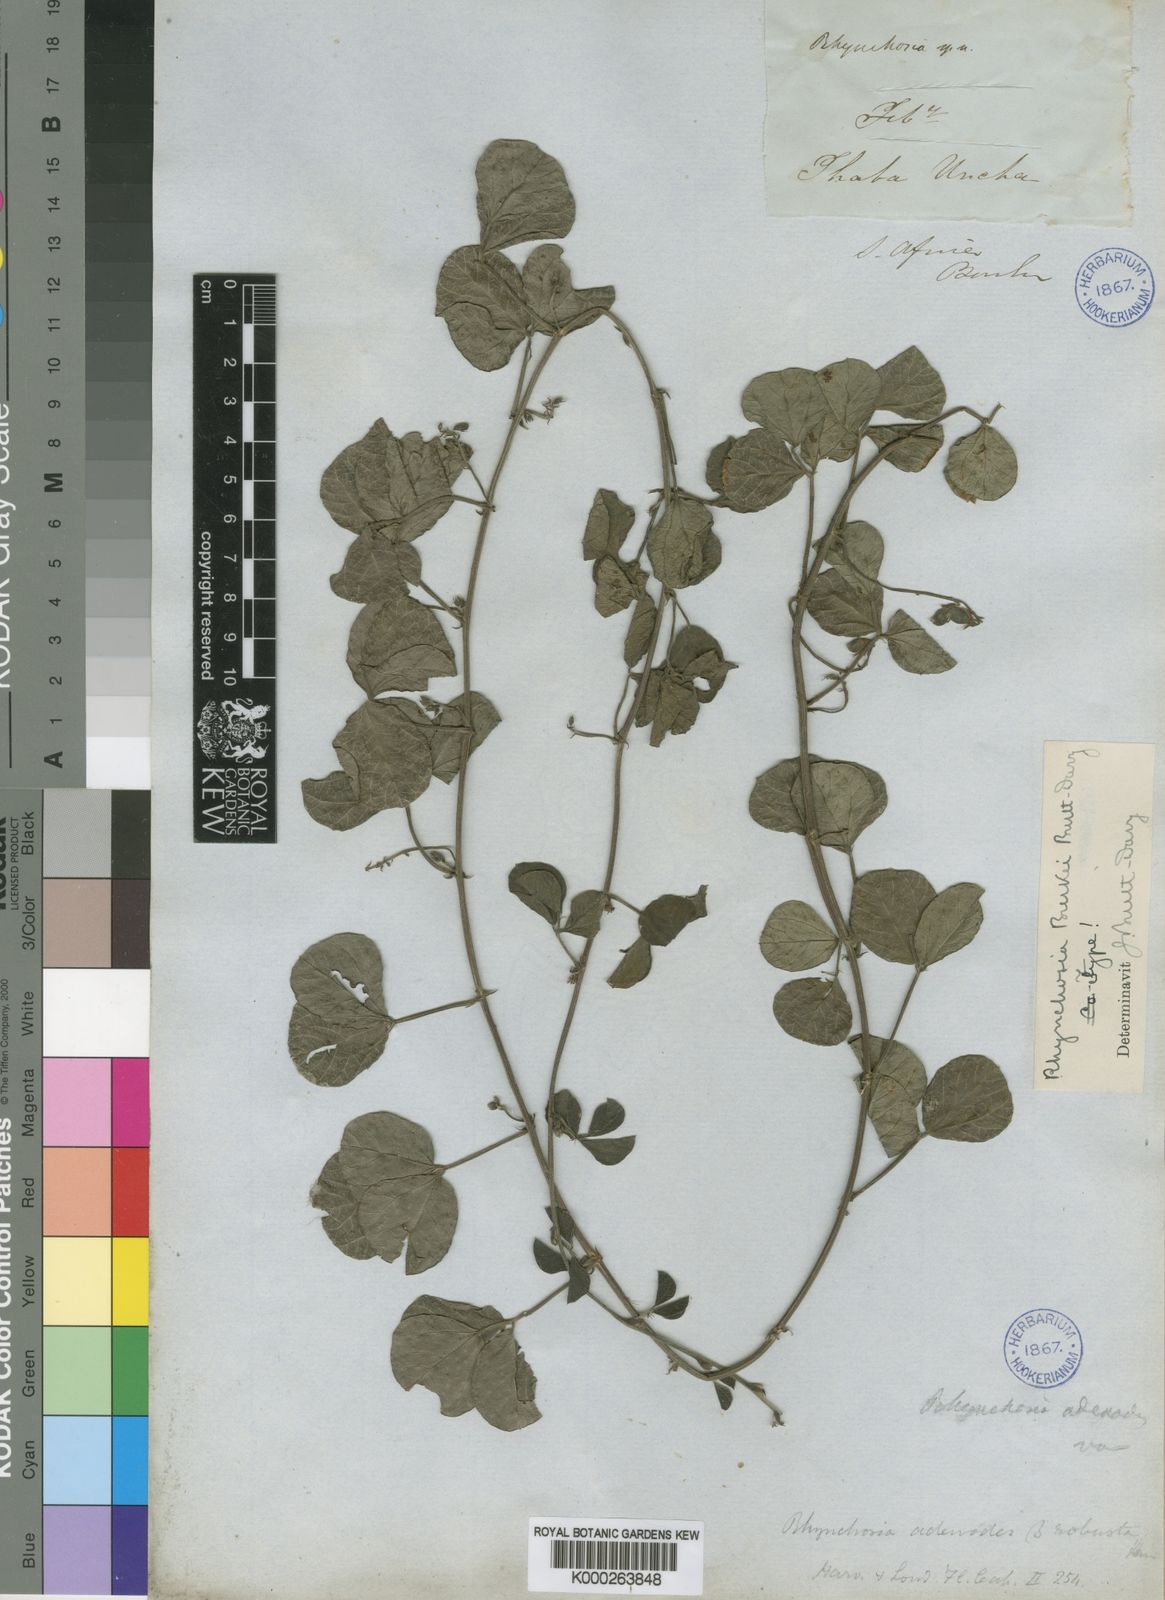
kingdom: Plantae
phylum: Tracheophyta
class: Magnoliopsida
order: Fabales
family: Fabaceae
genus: Rhynchosia
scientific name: Rhynchosia adenodes
